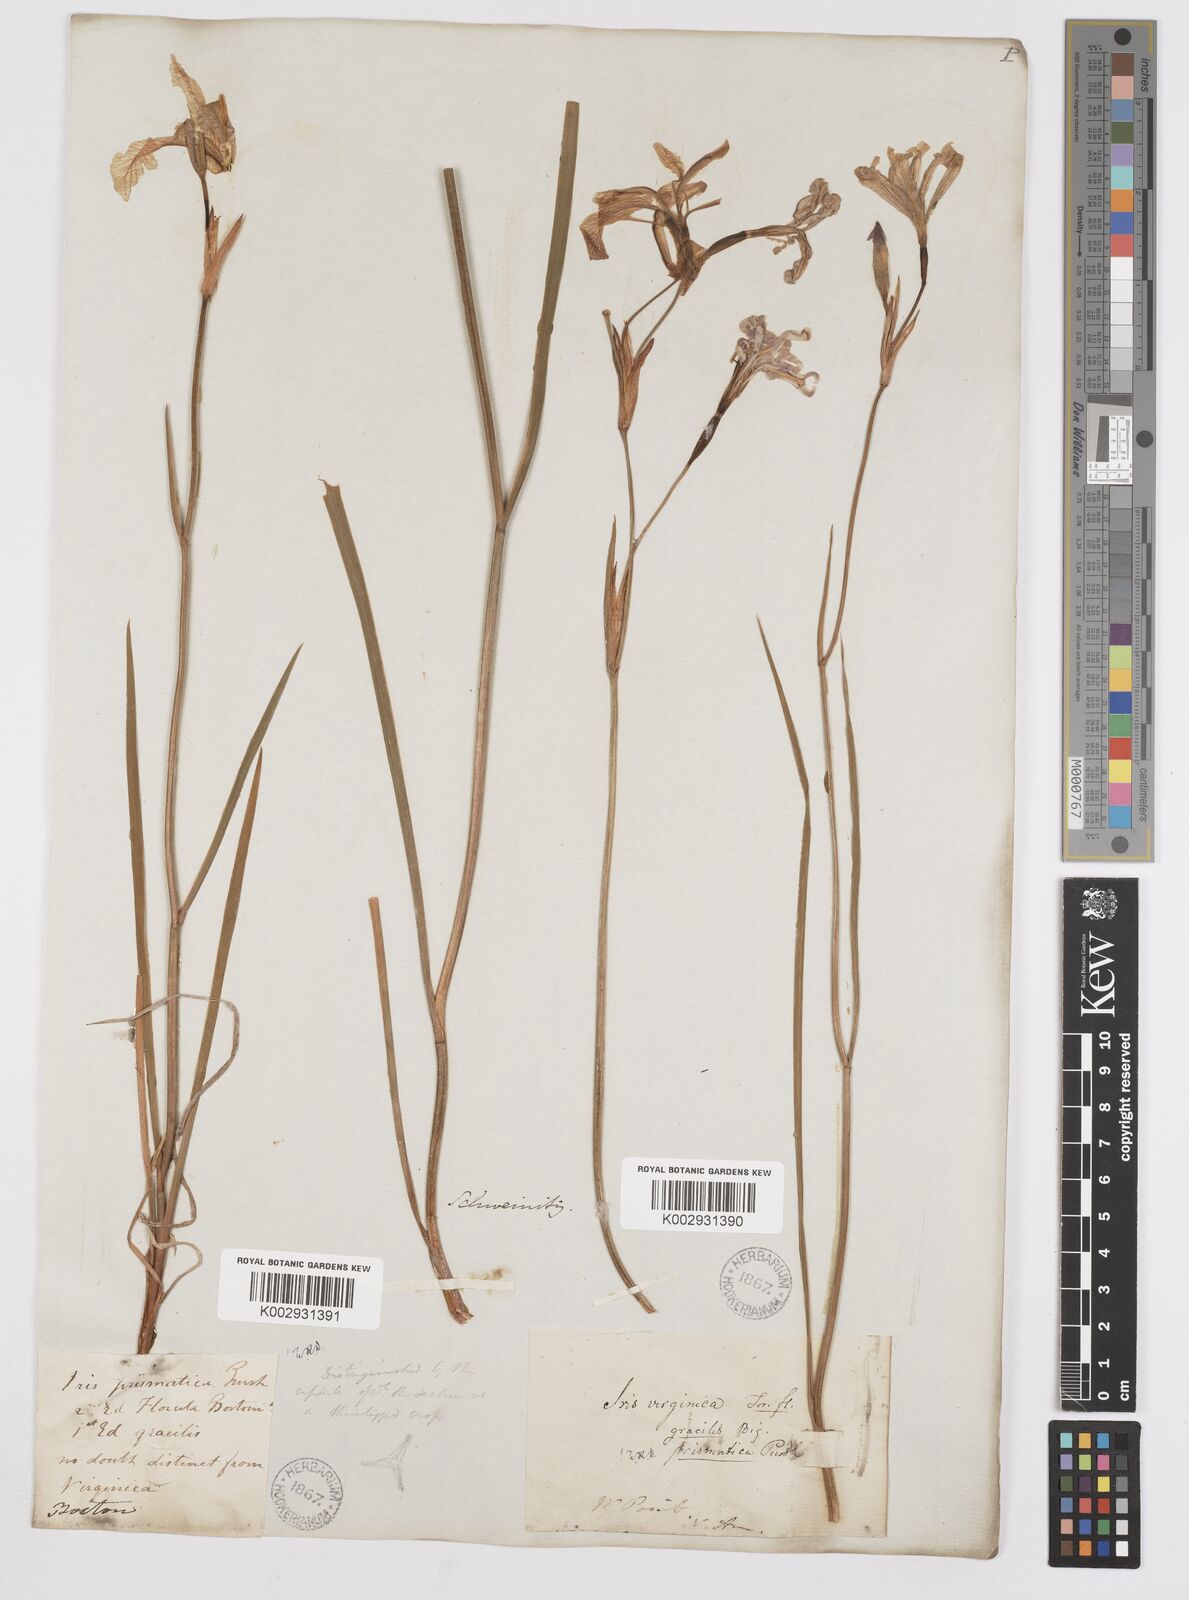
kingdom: Plantae
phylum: Tracheophyta
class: Liliopsida
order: Asparagales
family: Iridaceae
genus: Iris
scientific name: Iris prismatica
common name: Slender blue flag
